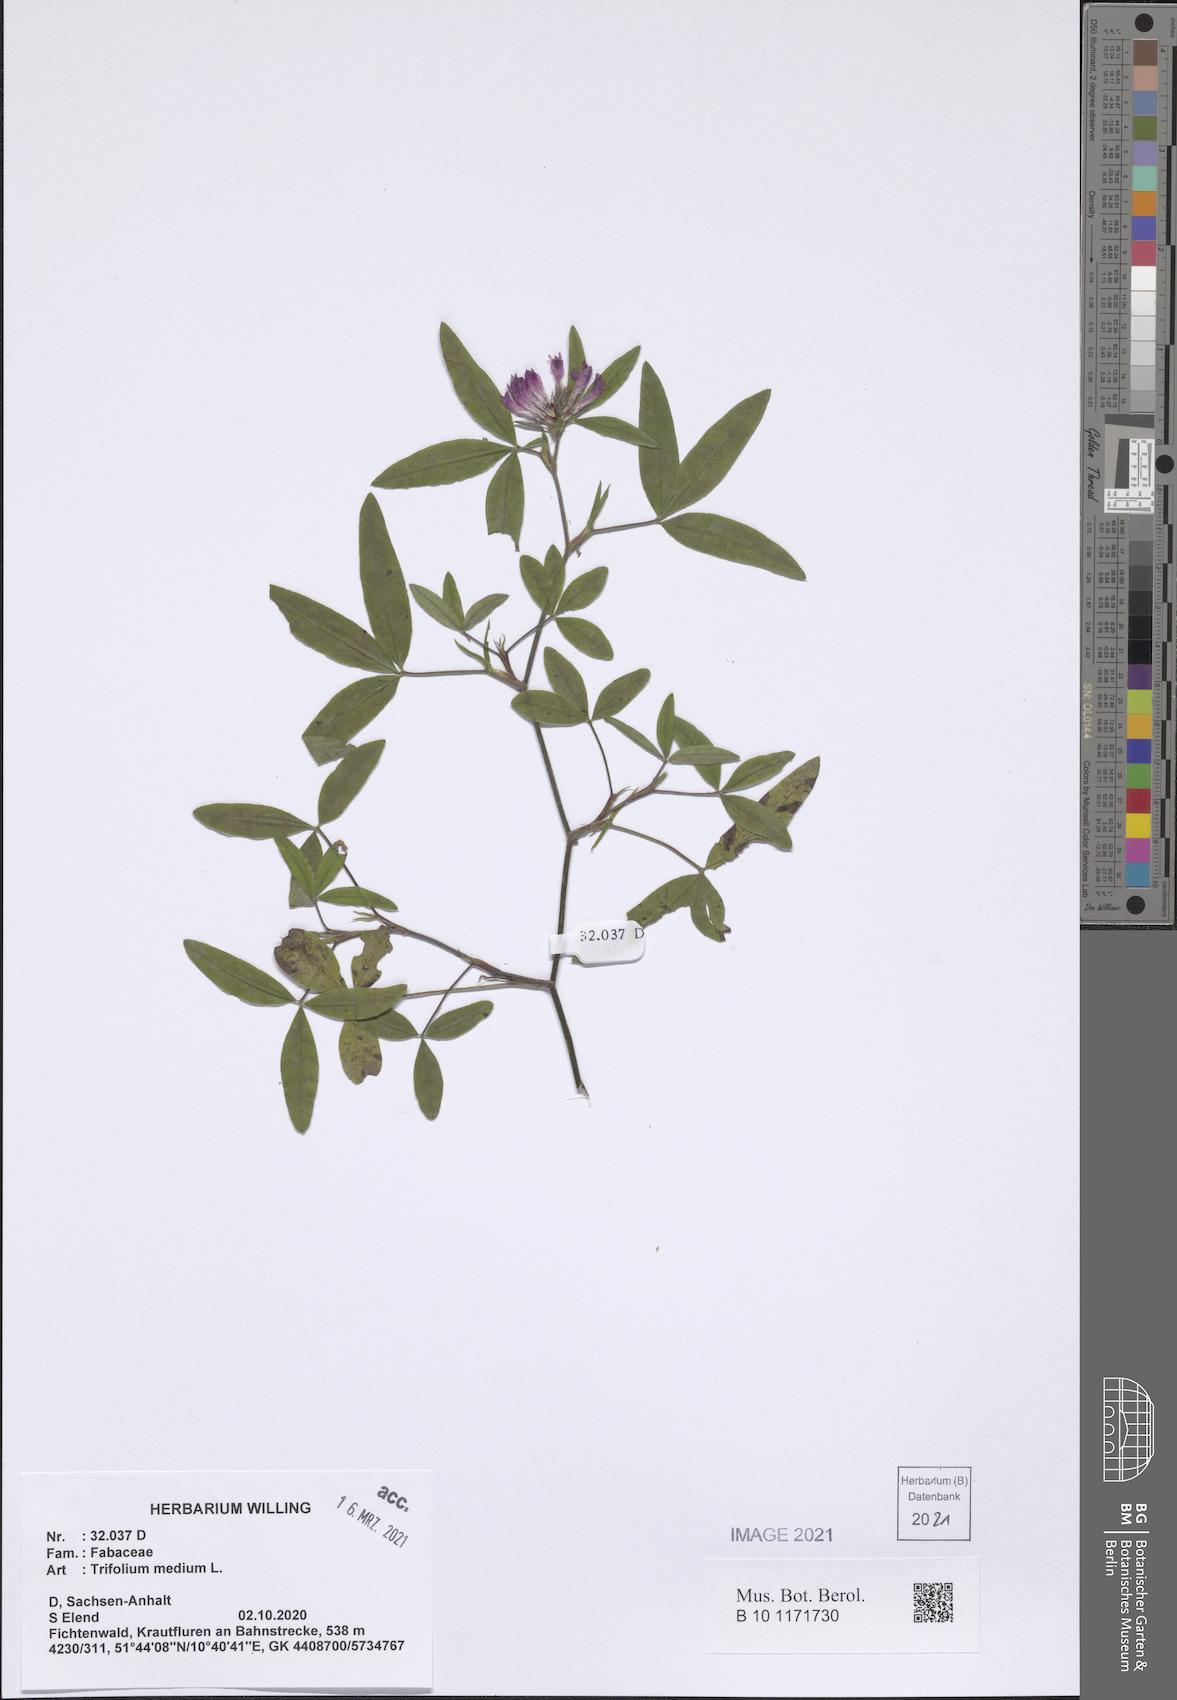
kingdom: Plantae
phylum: Tracheophyta
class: Magnoliopsida
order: Fabales
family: Fabaceae
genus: Trifolium
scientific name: Trifolium medium
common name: Zigzag clover
